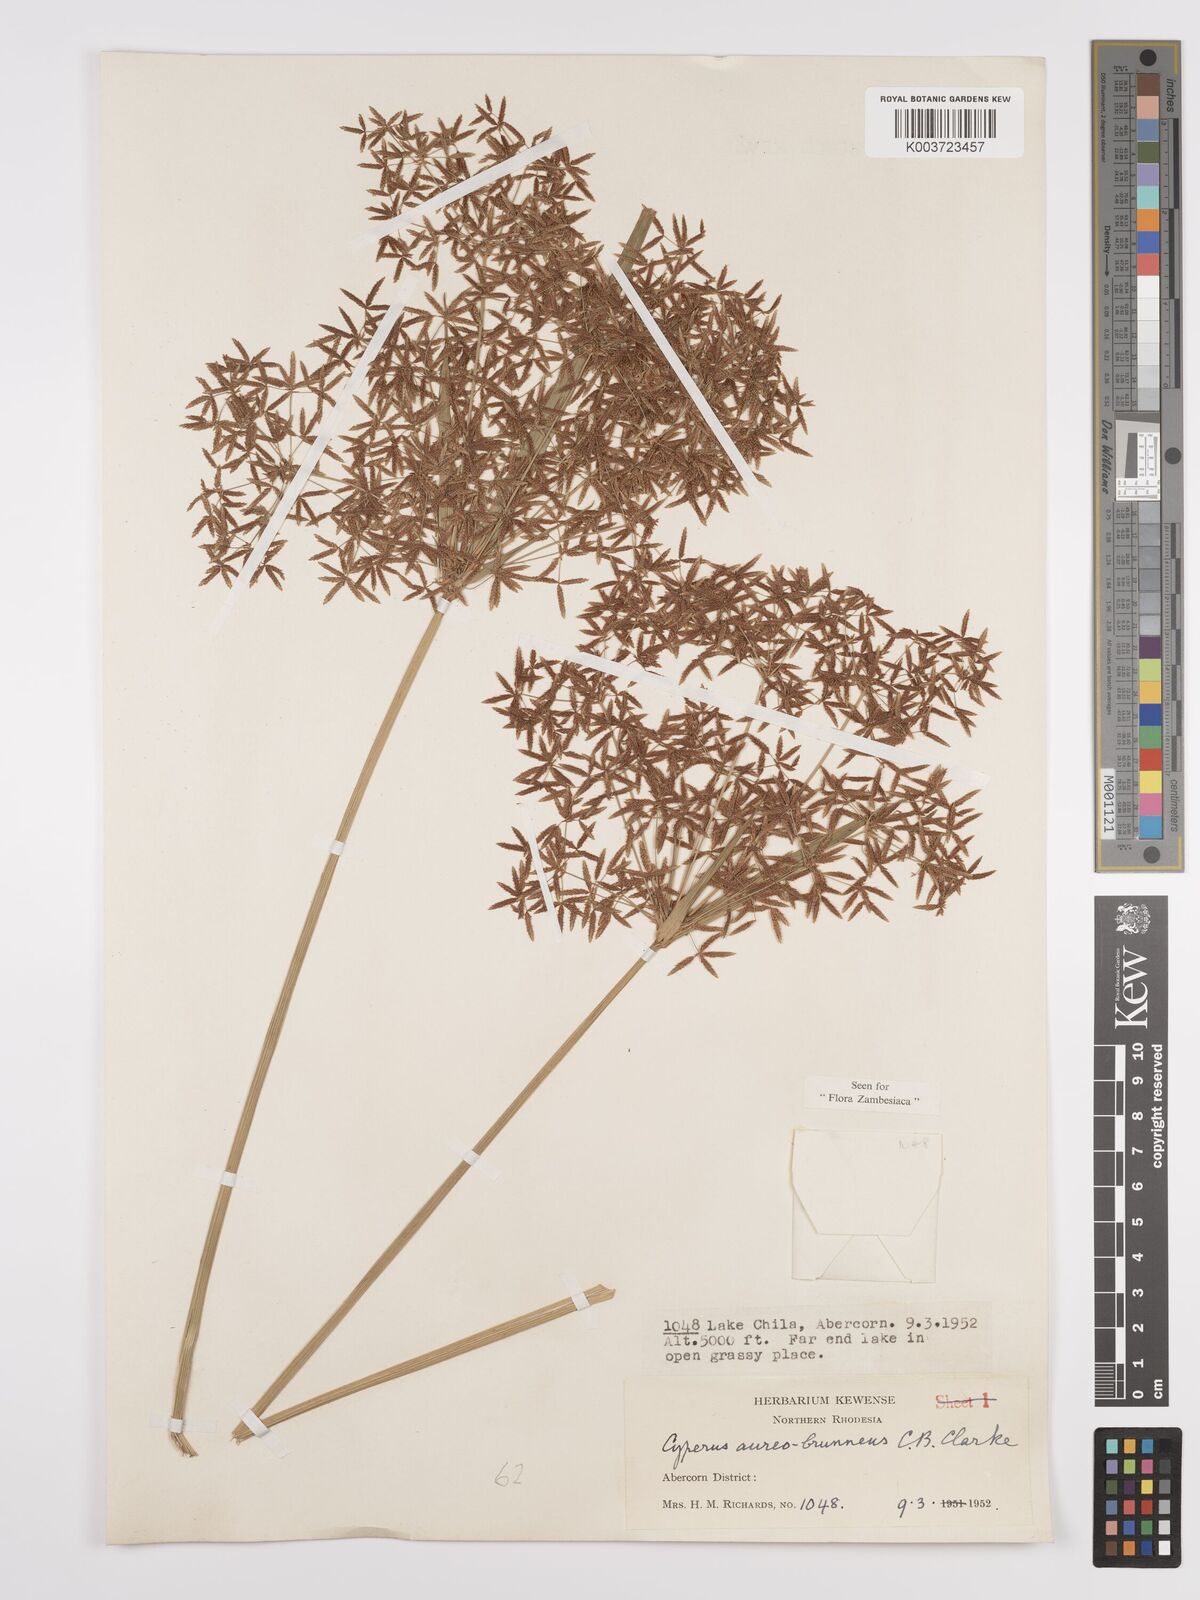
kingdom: Plantae
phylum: Tracheophyta
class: Liliopsida
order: Poales
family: Cyperaceae
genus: Cyperus
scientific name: Cyperus aureobrunneus
